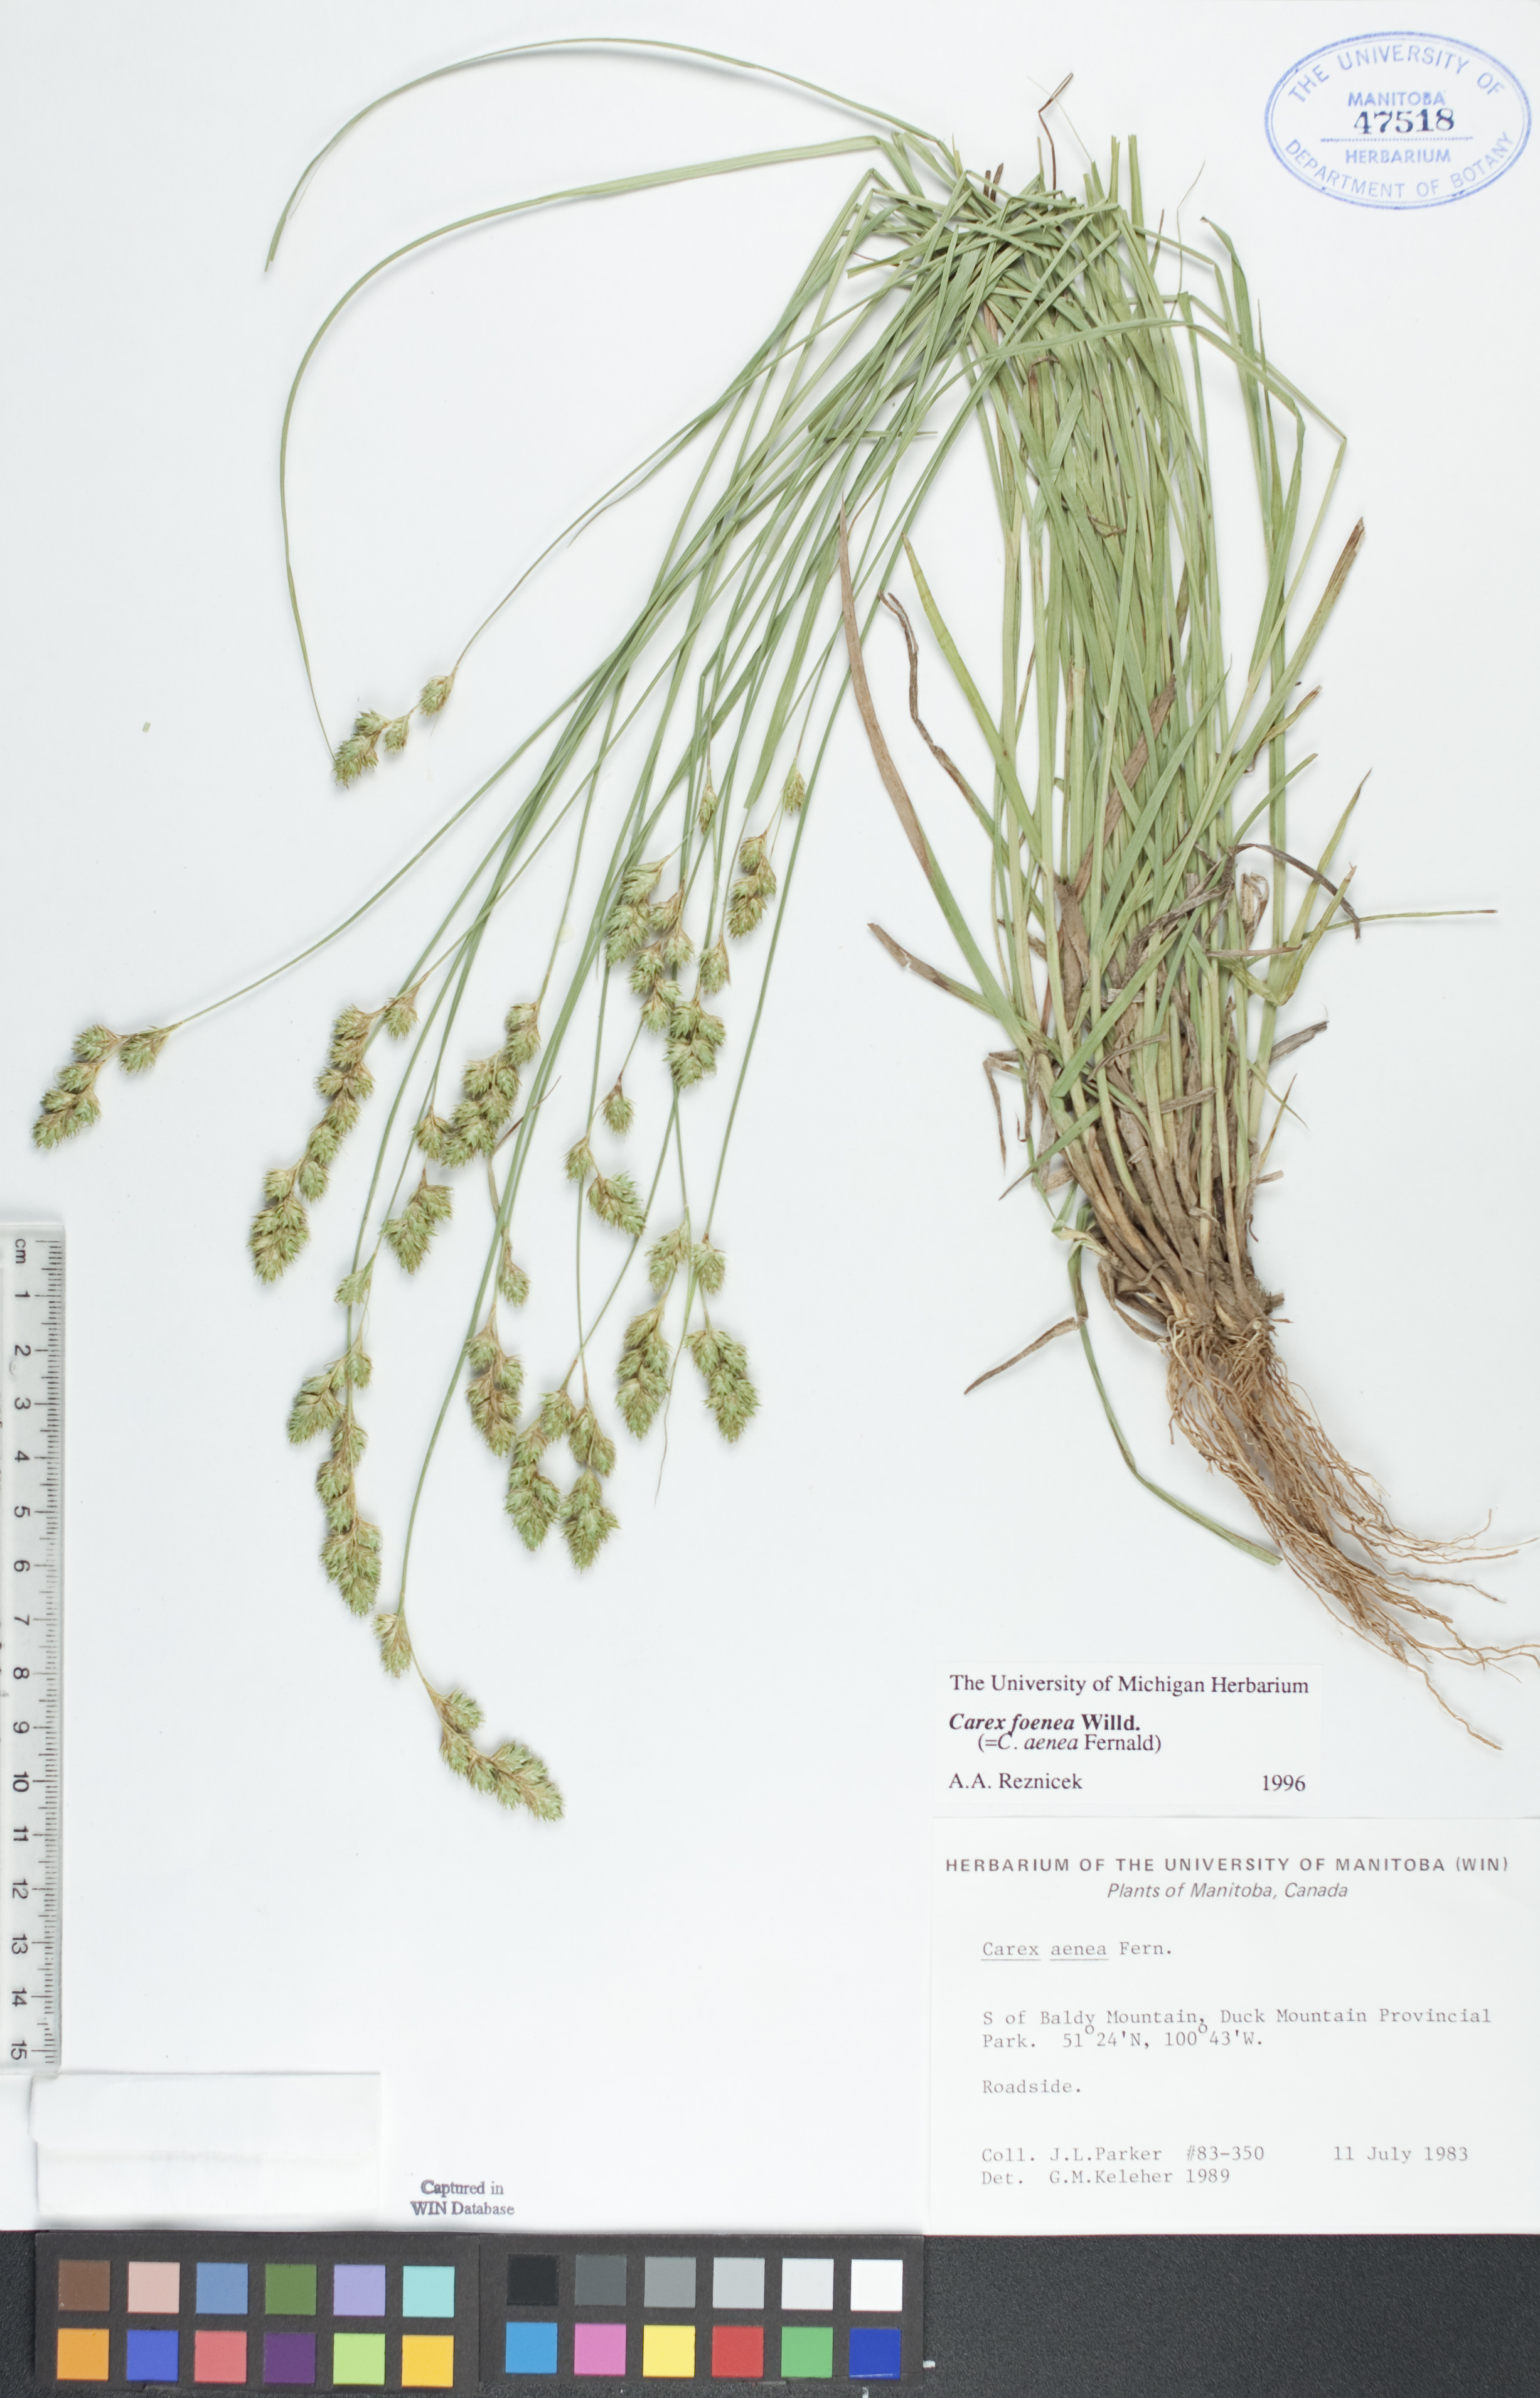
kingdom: Plantae
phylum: Tracheophyta
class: Liliopsida
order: Poales
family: Cyperaceae
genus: Carex
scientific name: Carex foenea
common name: Bronze sedge
